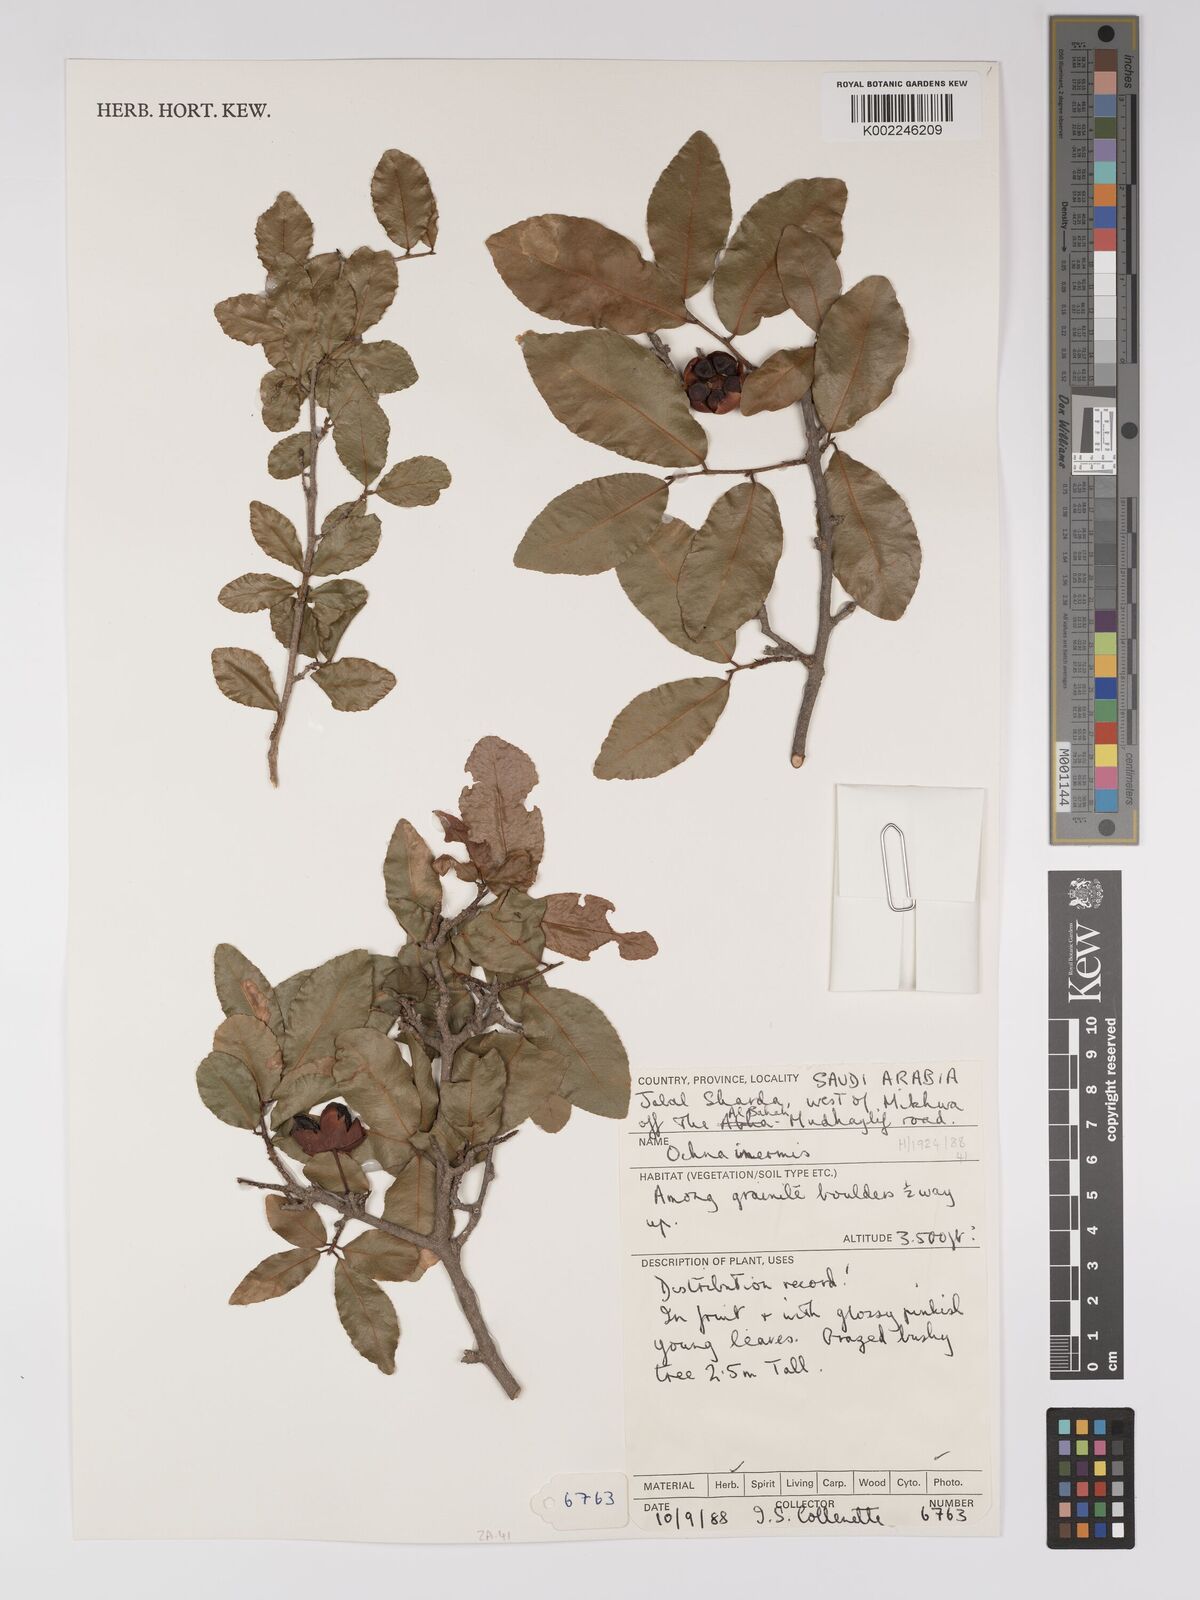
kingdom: Plantae
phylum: Tracheophyta
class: Magnoliopsida
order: Malpighiales
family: Ochnaceae
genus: Ochna
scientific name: Ochna inermis
